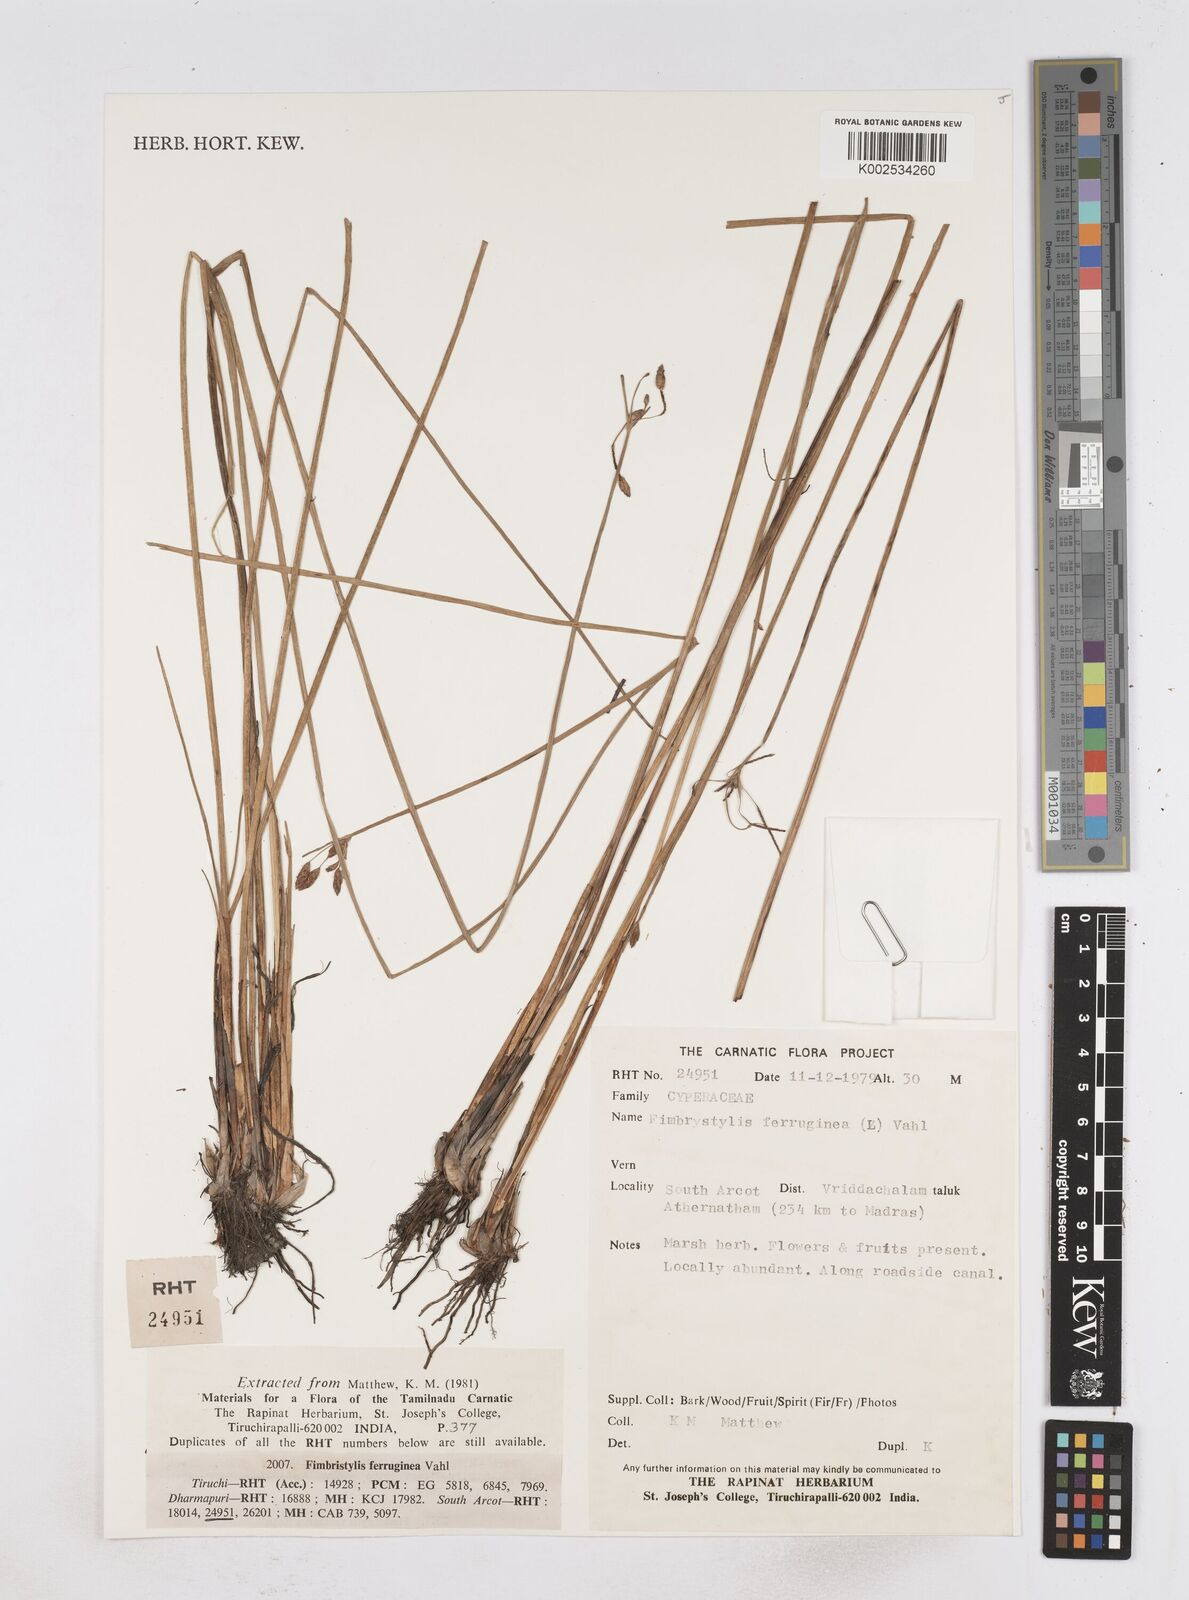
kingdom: Plantae
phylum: Tracheophyta
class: Liliopsida
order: Poales
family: Cyperaceae
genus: Fimbristylis
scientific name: Fimbristylis ferruginea
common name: West indian fimbry
